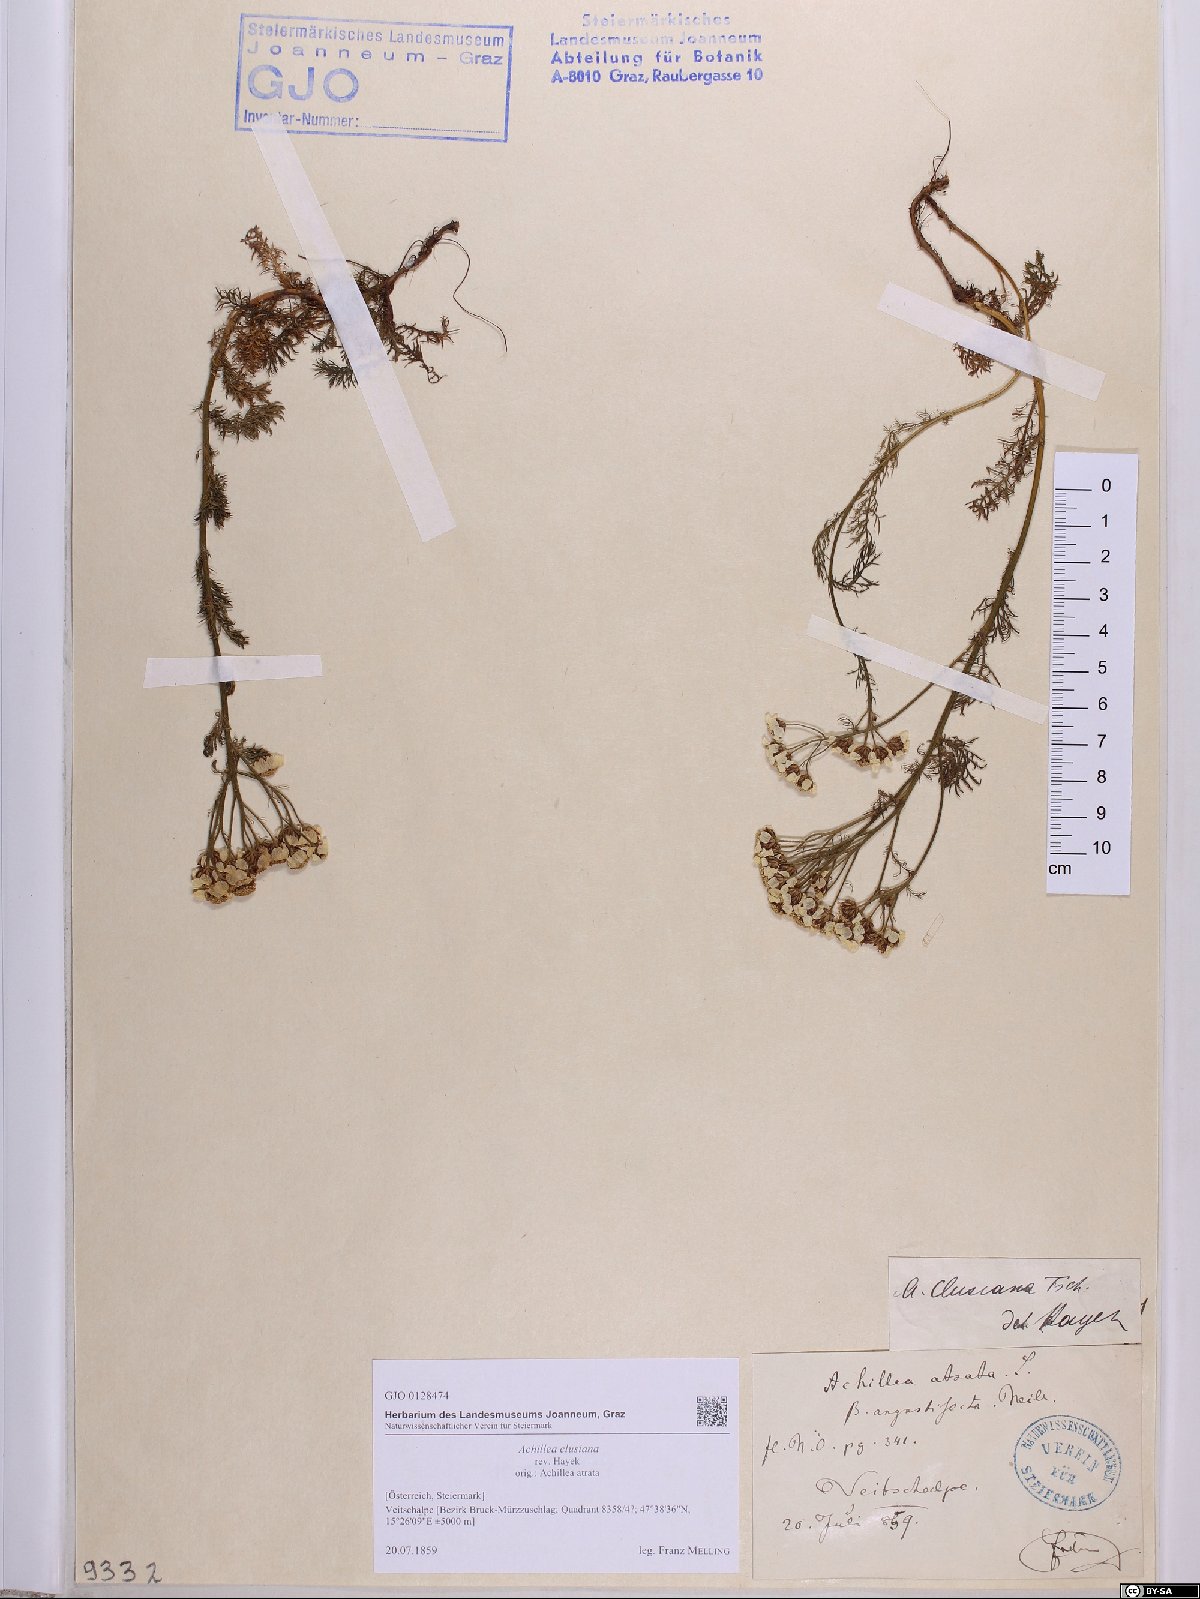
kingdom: Plantae
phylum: Tracheophyta
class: Magnoliopsida
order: Asterales
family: Asteraceae
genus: Achillea
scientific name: Achillea clusiana
